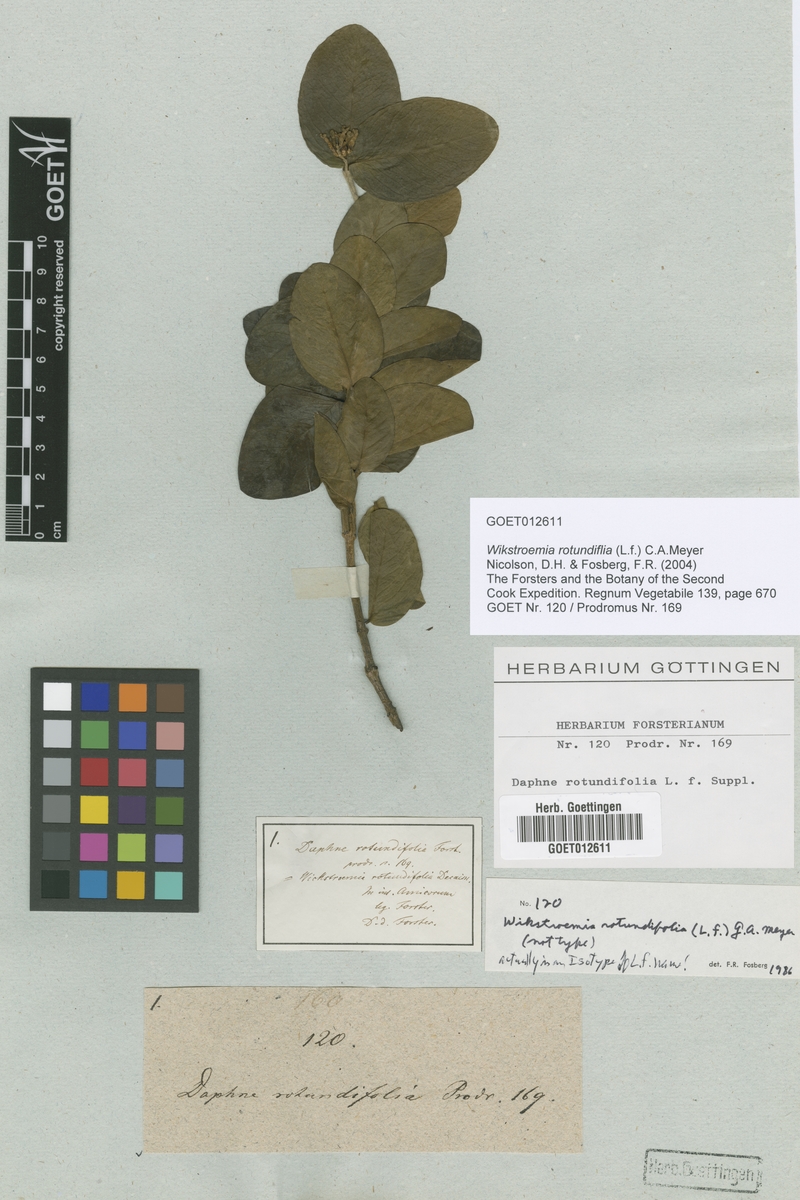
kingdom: Plantae
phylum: Tracheophyta
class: Magnoliopsida
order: Malvales
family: Thymelaeaceae
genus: Wikstroemia
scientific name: Wikstroemia coriacea
